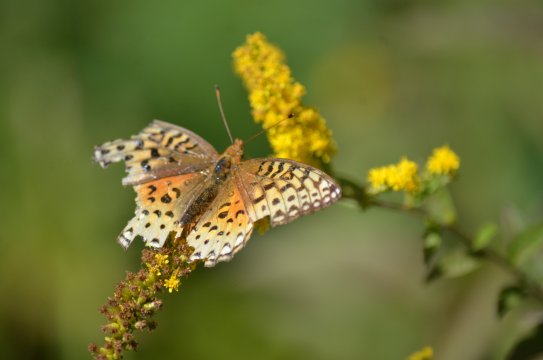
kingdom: Animalia
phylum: Arthropoda
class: Insecta
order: Lepidoptera
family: Nymphalidae
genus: Speyeria
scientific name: Speyeria aphrodite
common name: Aphrodite Fritillary
